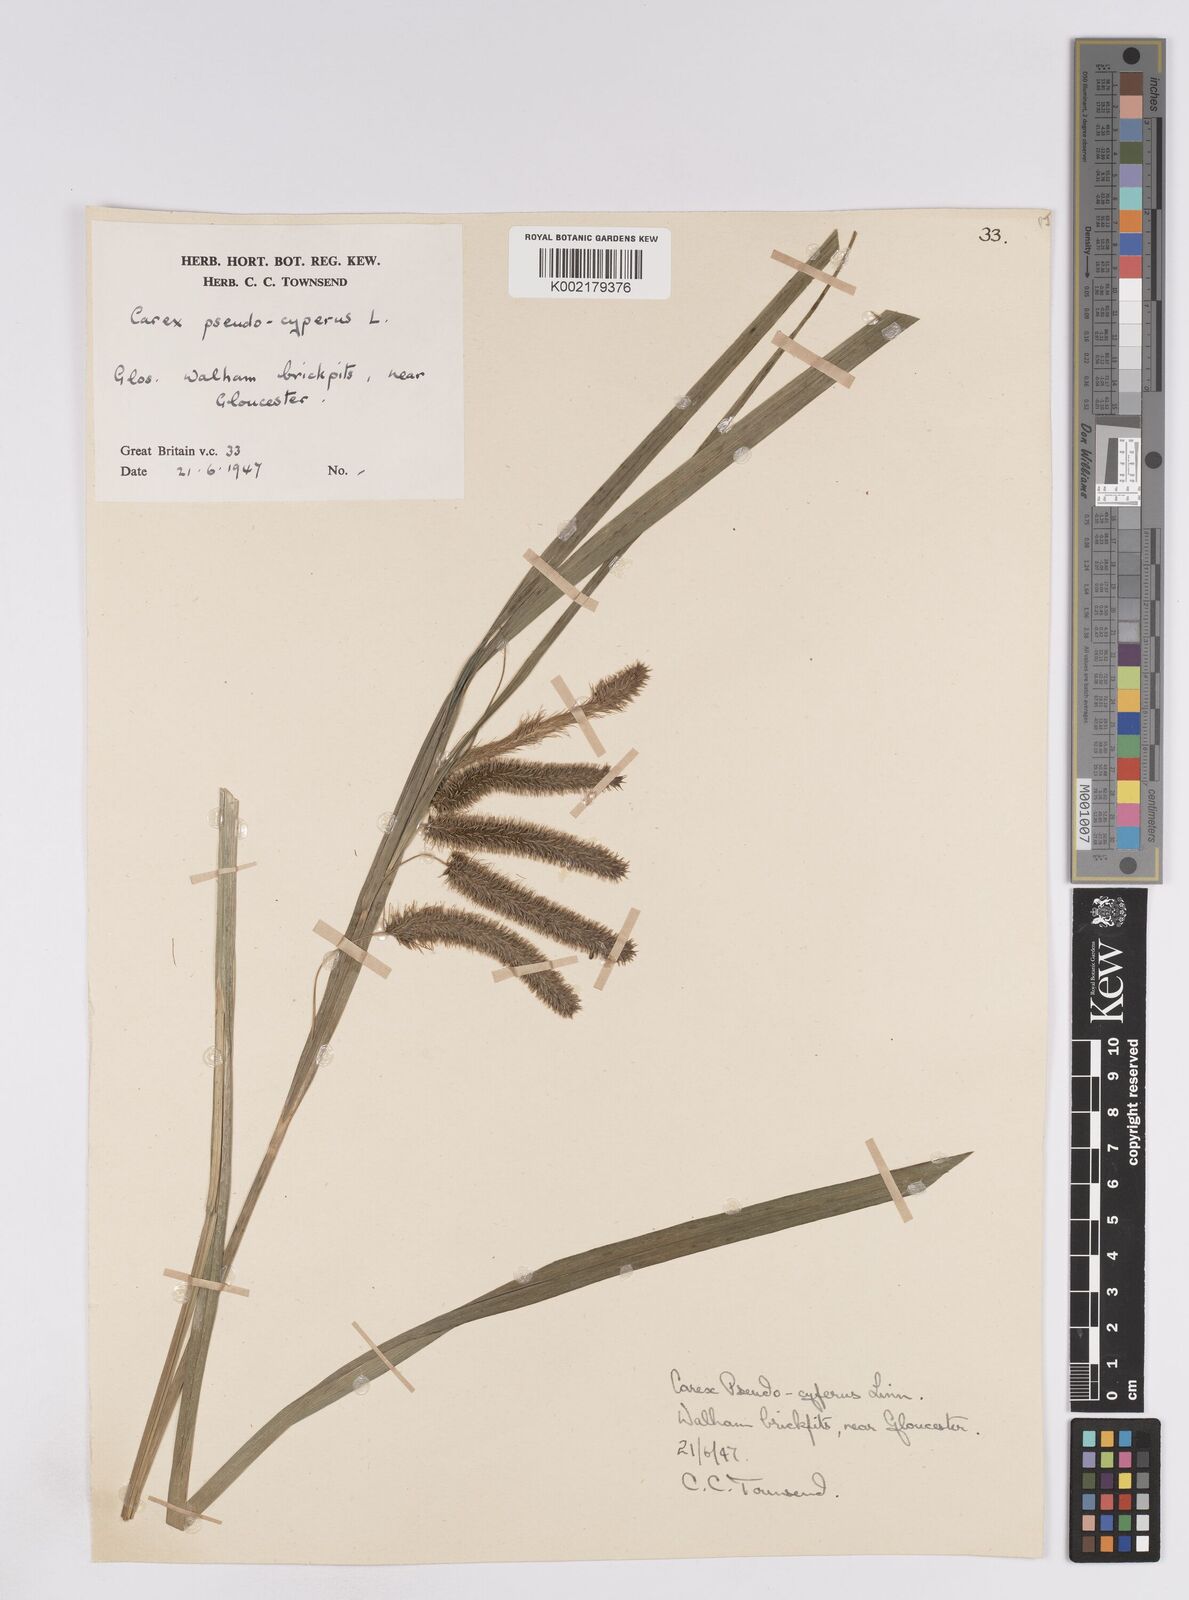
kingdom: Plantae
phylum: Tracheophyta
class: Liliopsida
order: Poales
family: Cyperaceae
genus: Carex
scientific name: Carex pseudocyperus
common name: Cyperus sedge
